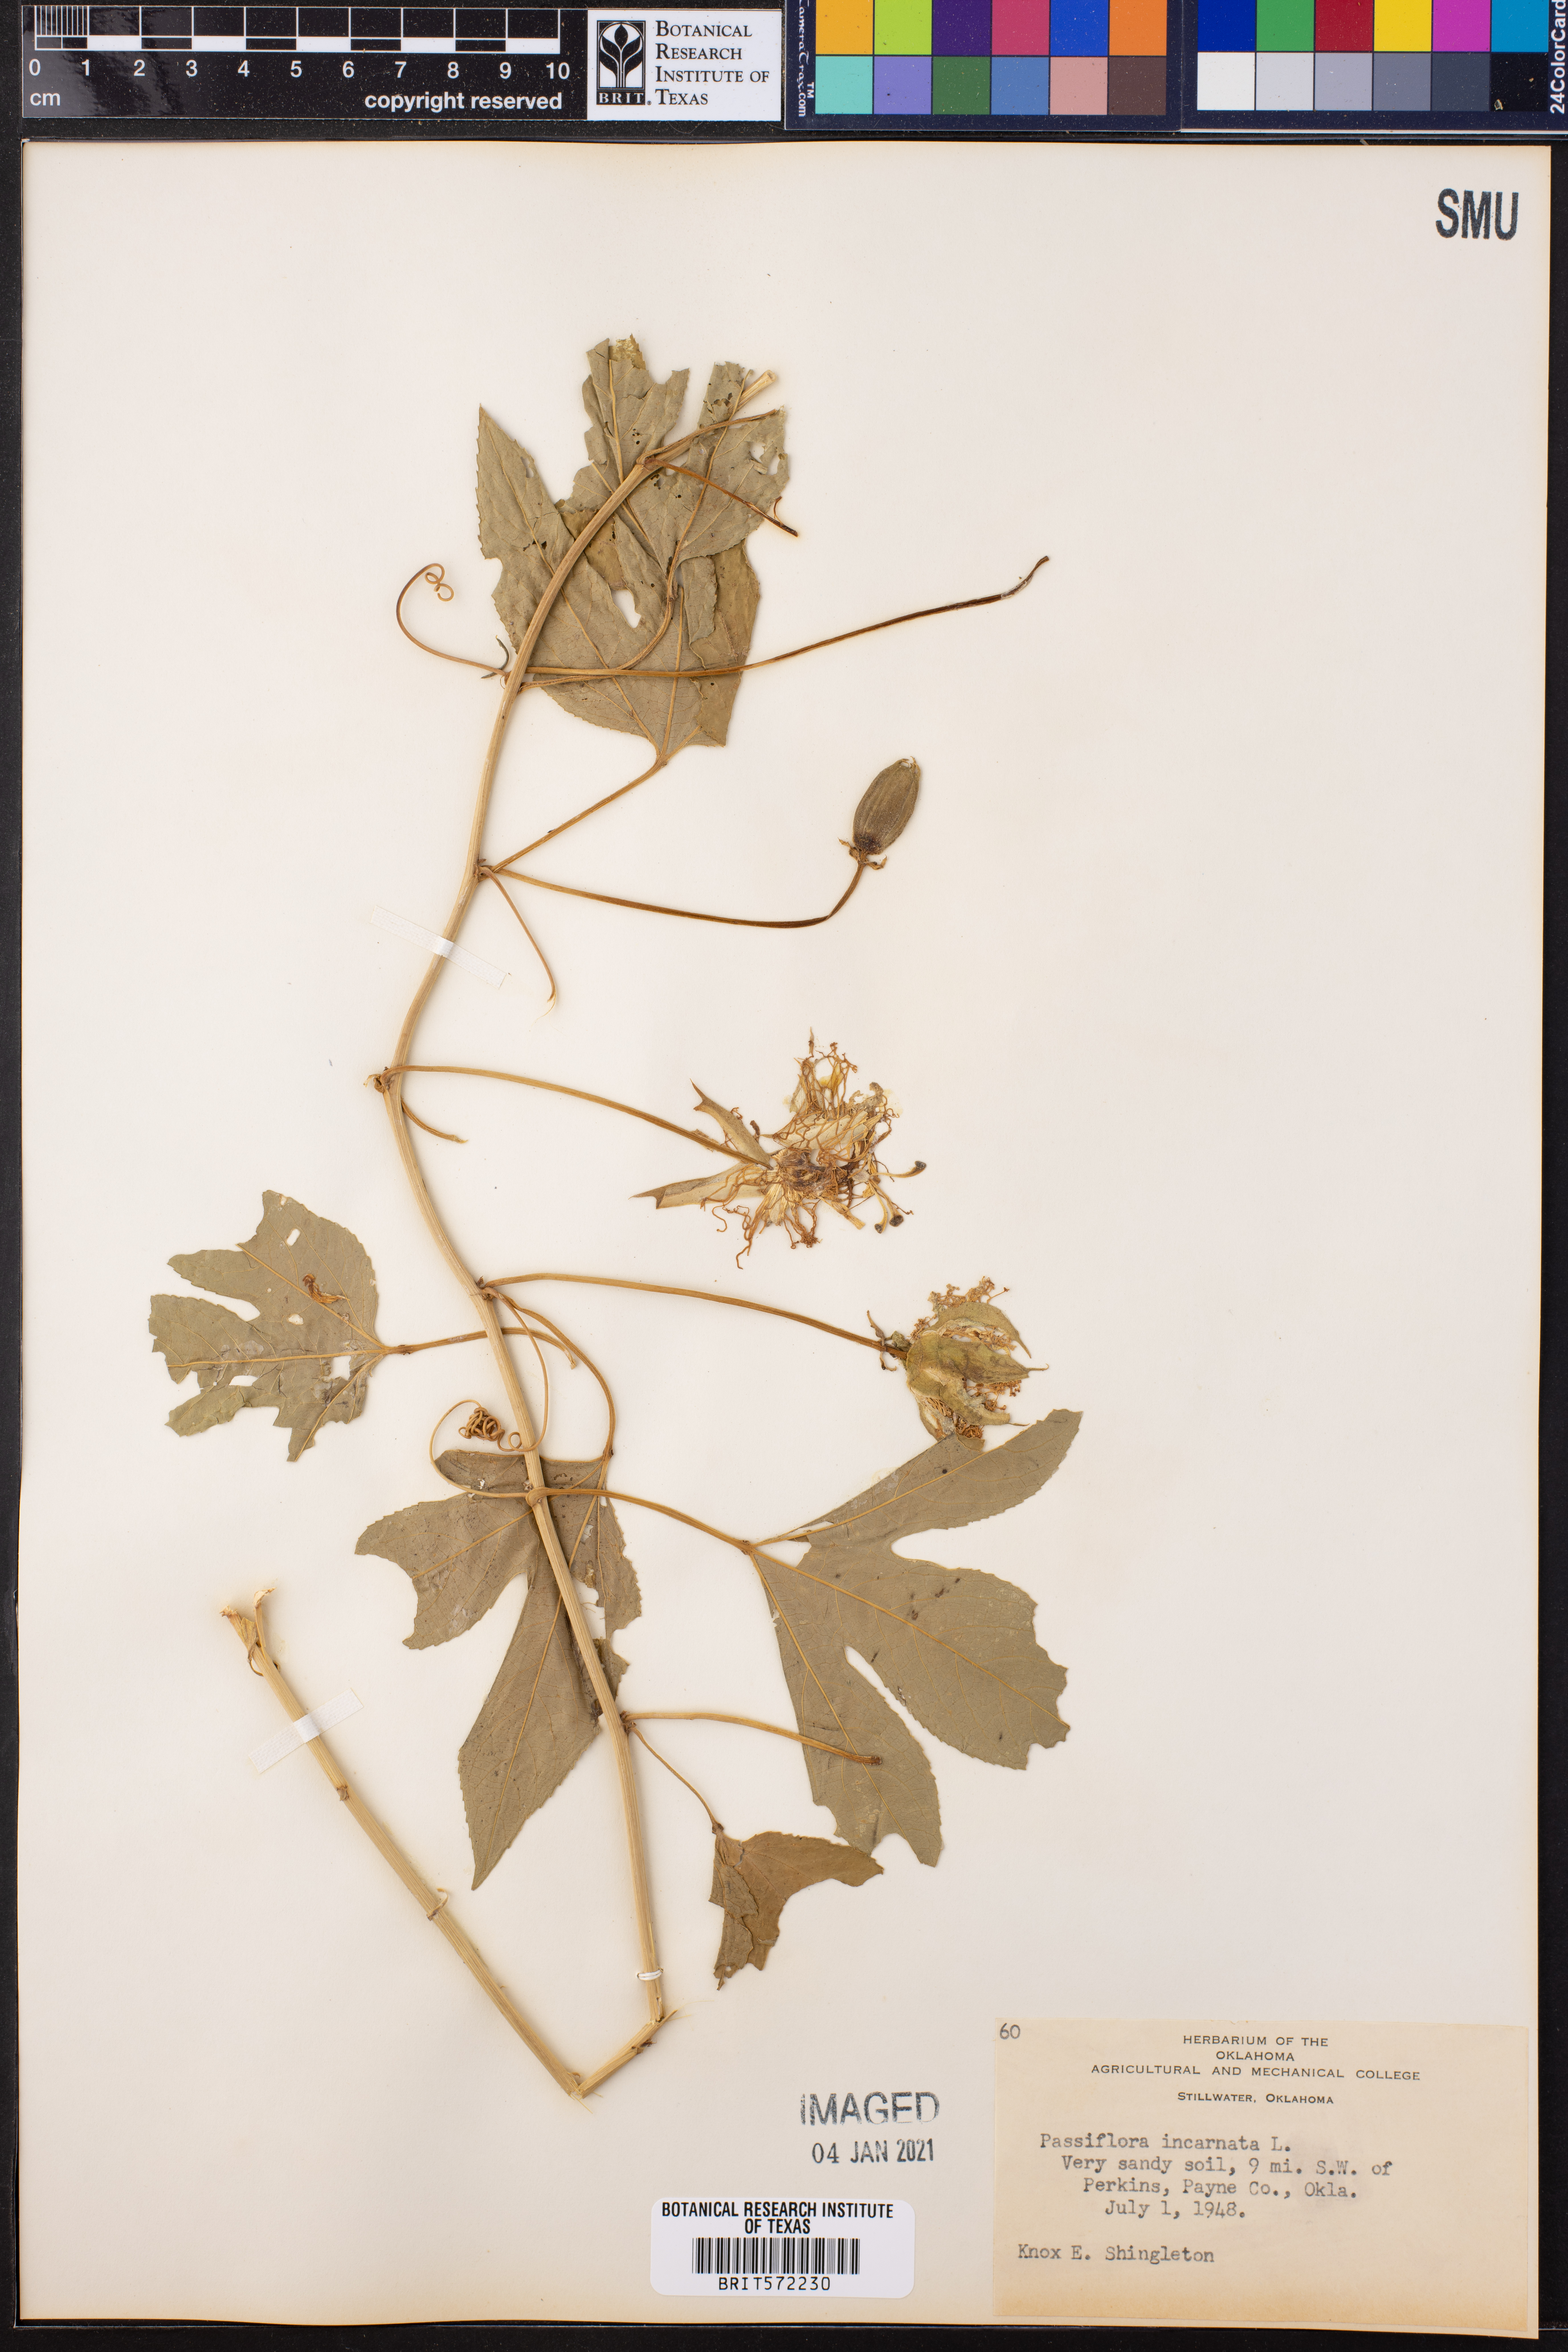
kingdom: Plantae
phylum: Tracheophyta
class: Magnoliopsida
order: Malpighiales
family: Passifloraceae
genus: Passiflora
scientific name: Passiflora incarnata
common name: Apricot-vine
